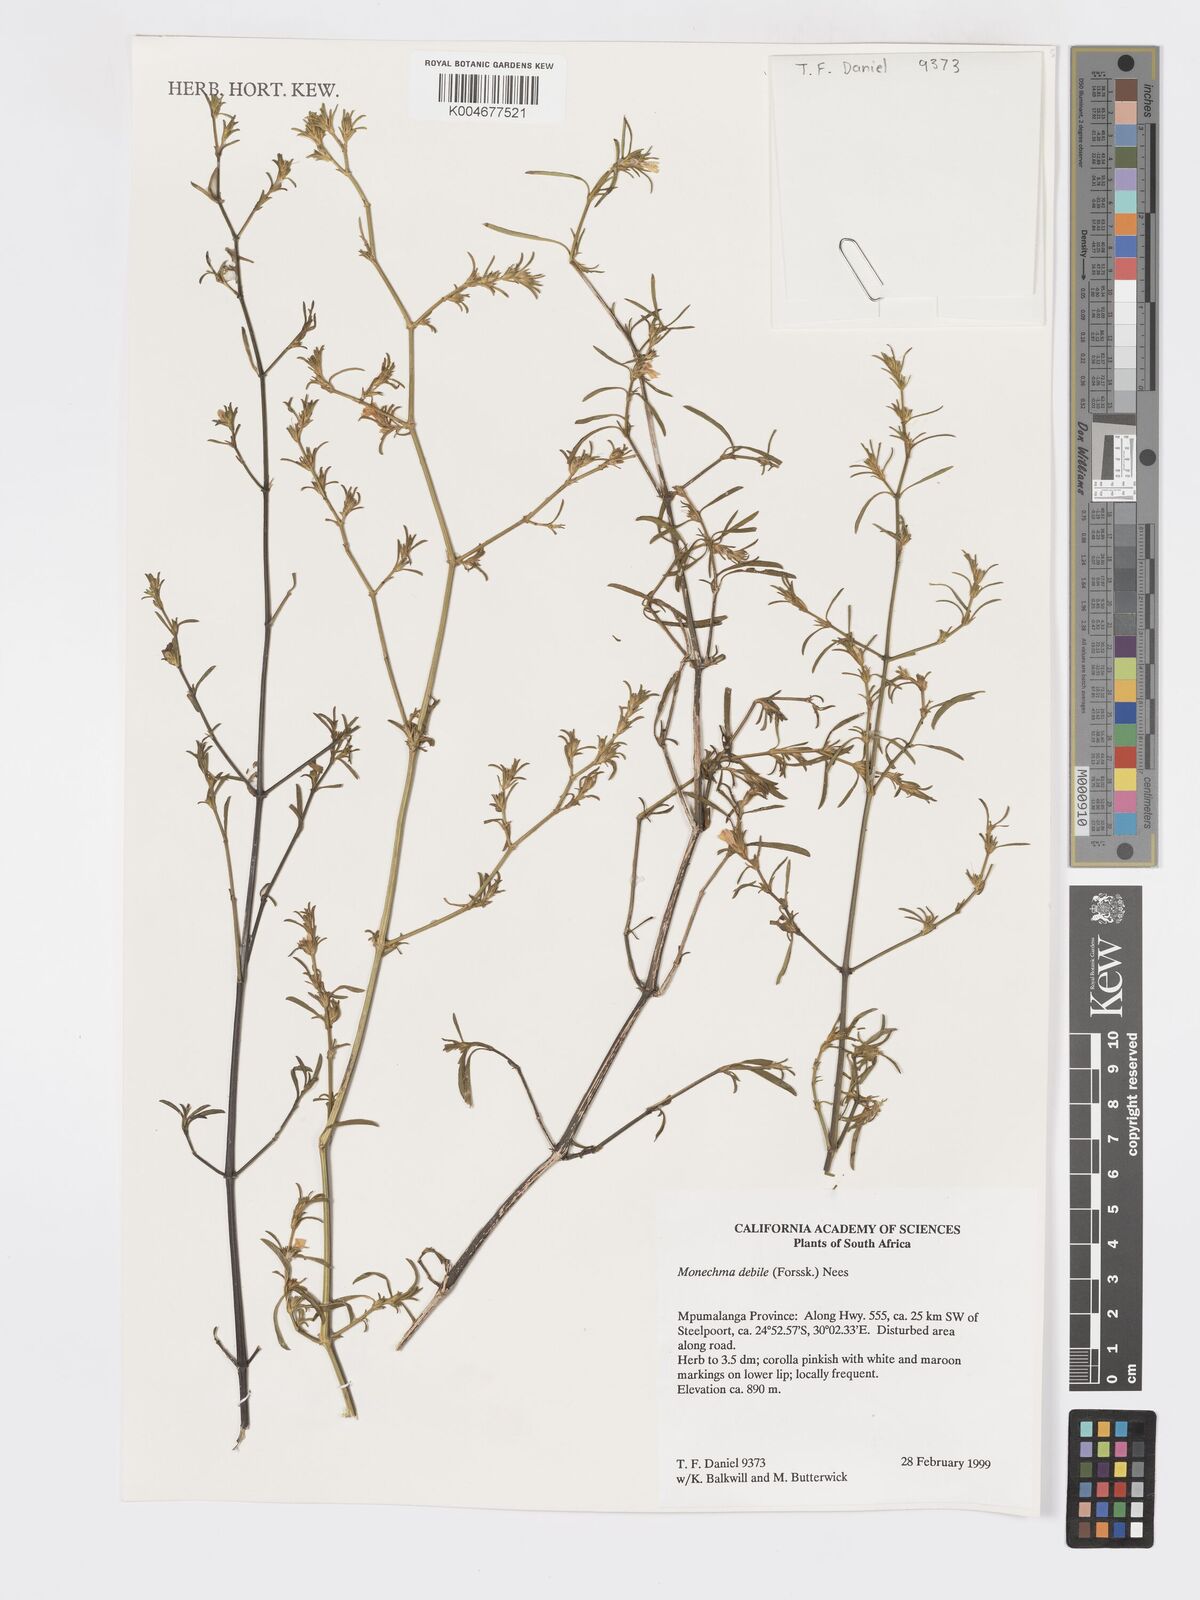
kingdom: Plantae
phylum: Tracheophyta
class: Magnoliopsida
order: Lamiales
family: Acanthaceae
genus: Pogonospermum
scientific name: Pogonospermum
